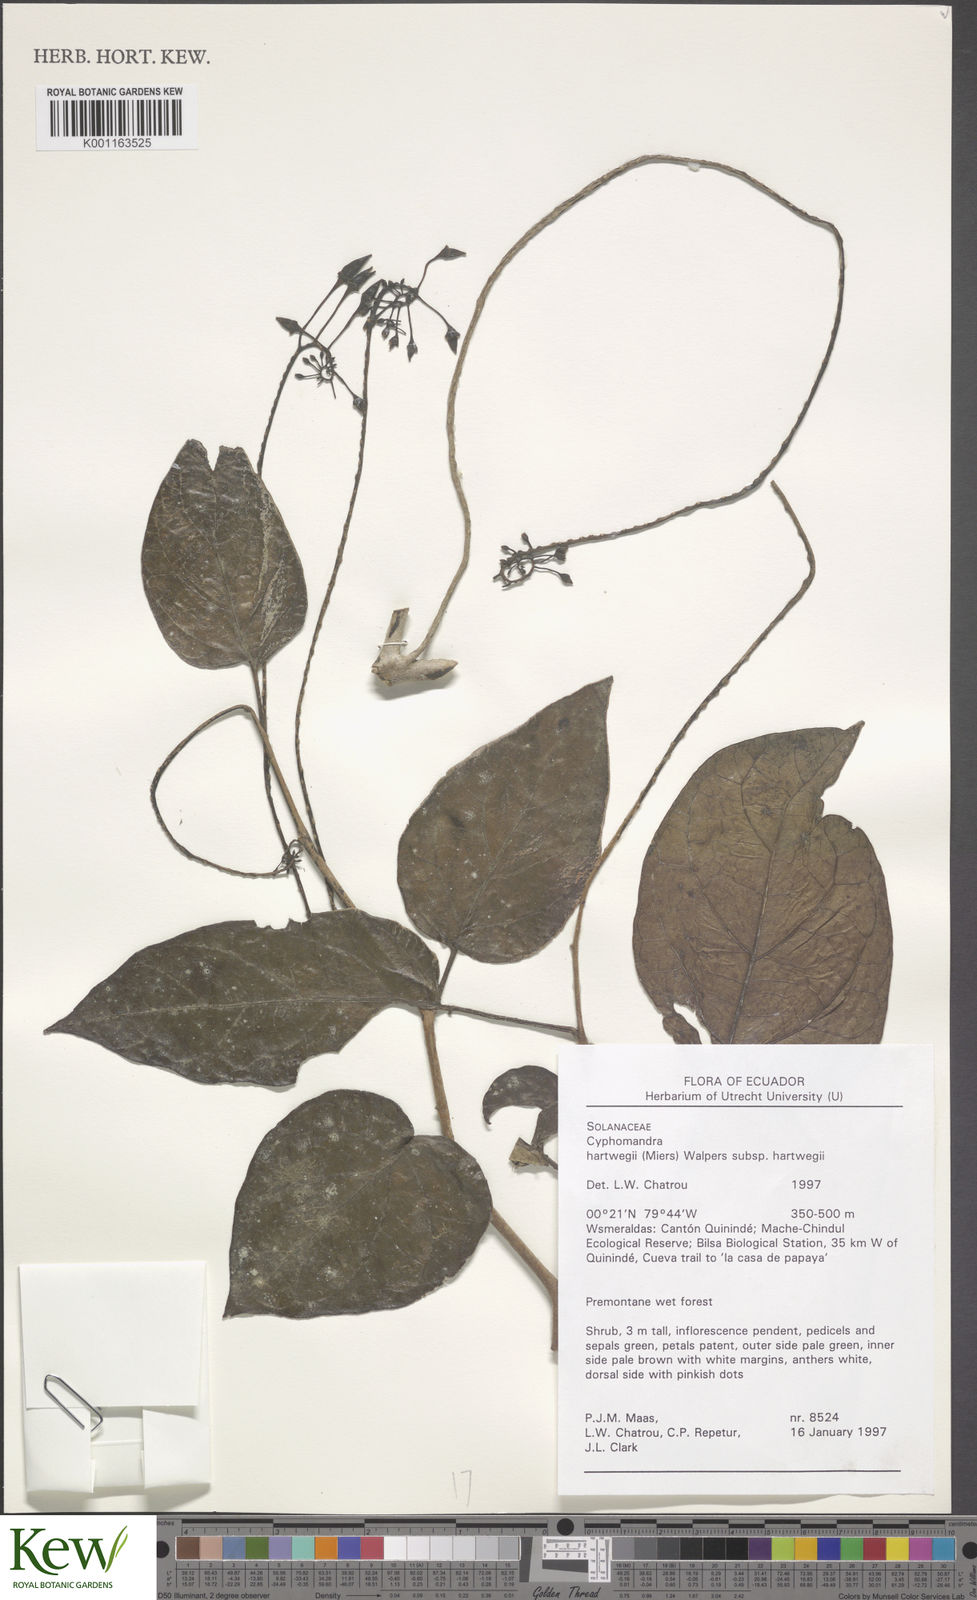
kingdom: Plantae
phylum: Tracheophyta
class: Magnoliopsida
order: Solanales
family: Solanaceae
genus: Solanum
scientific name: Solanum splendens
